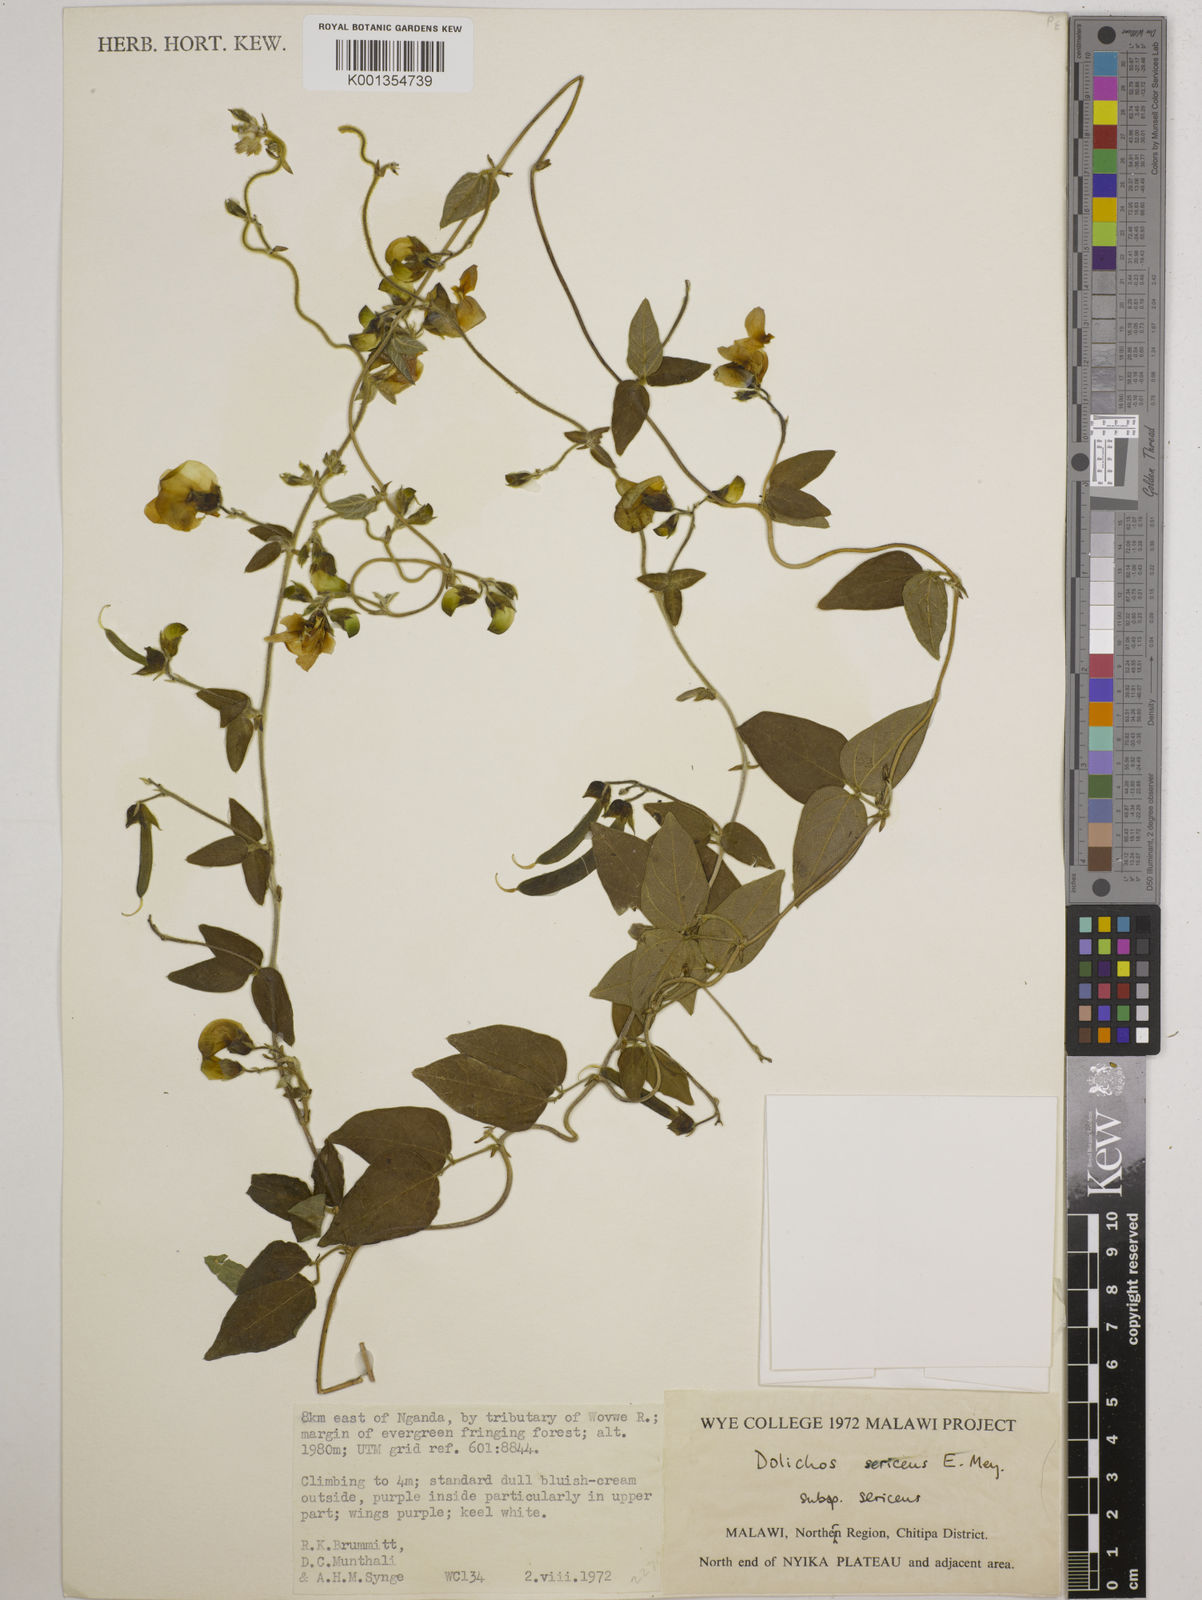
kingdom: Plantae
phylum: Tracheophyta
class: Magnoliopsida
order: Fabales
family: Fabaceae
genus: Dolichos
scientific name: Dolichos
